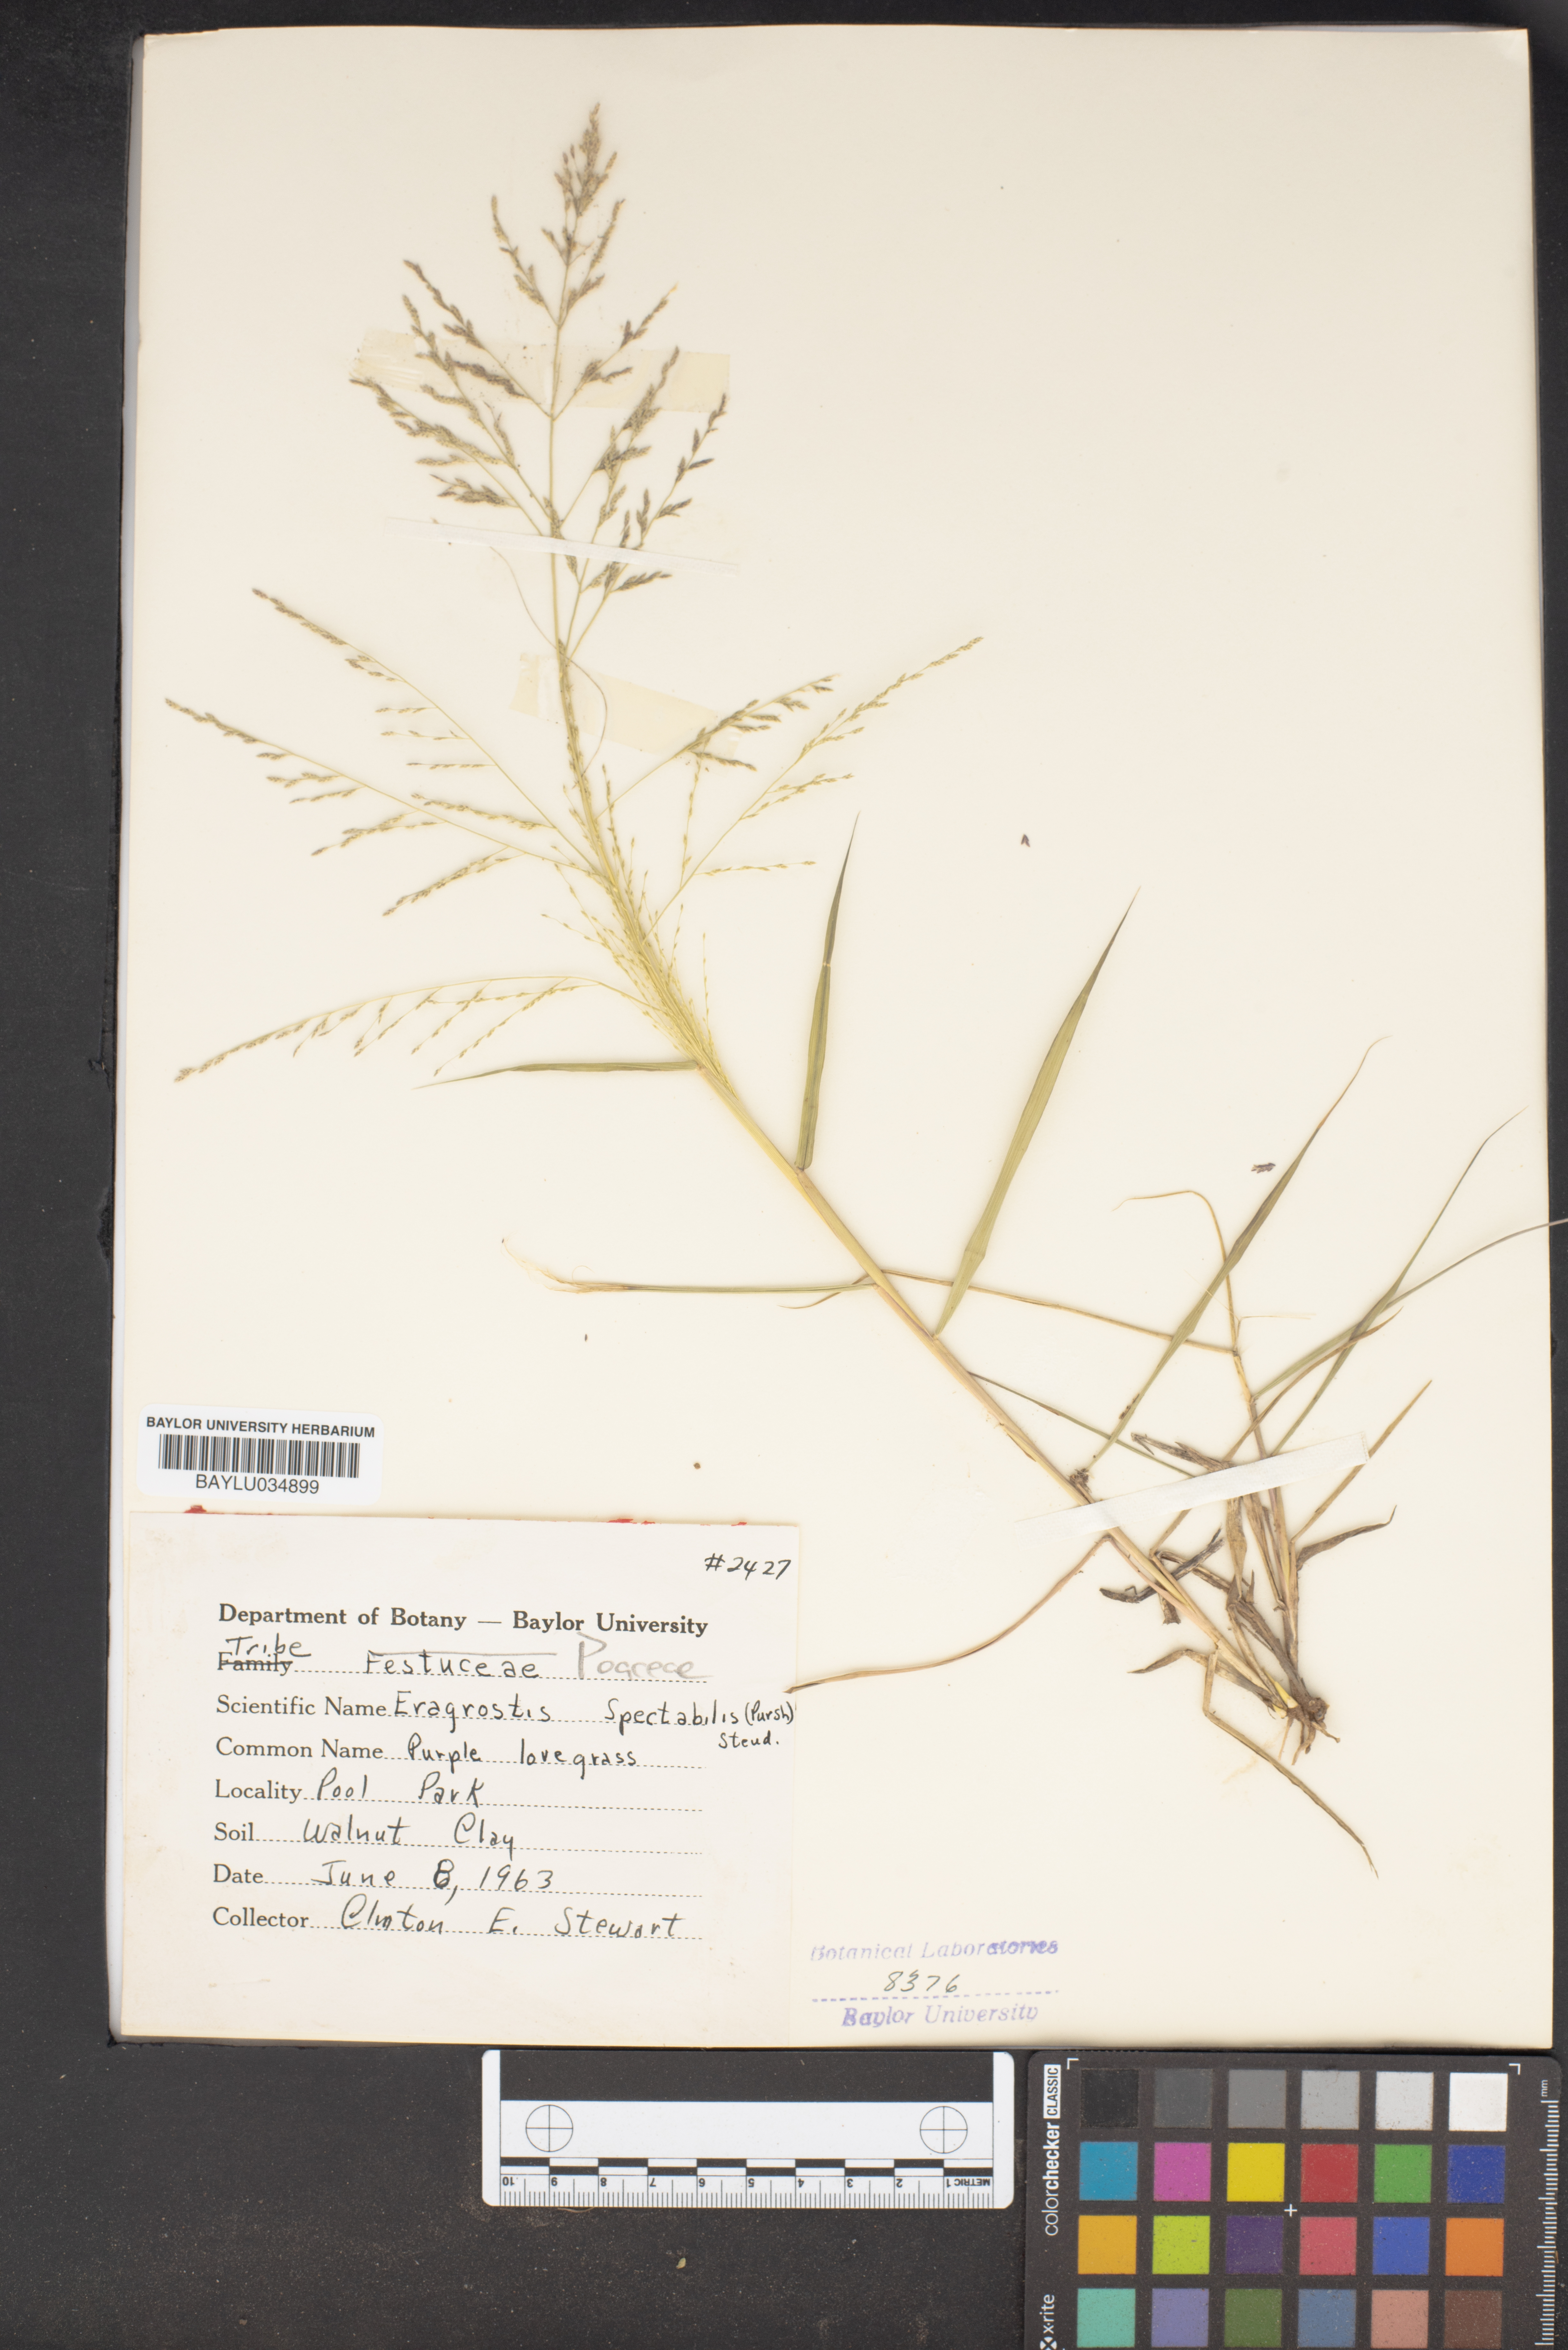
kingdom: Plantae
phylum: Tracheophyta
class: Liliopsida
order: Poales
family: Poaceae
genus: Eragrostis
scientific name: Eragrostis spectabilis
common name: Petticoat-climber
